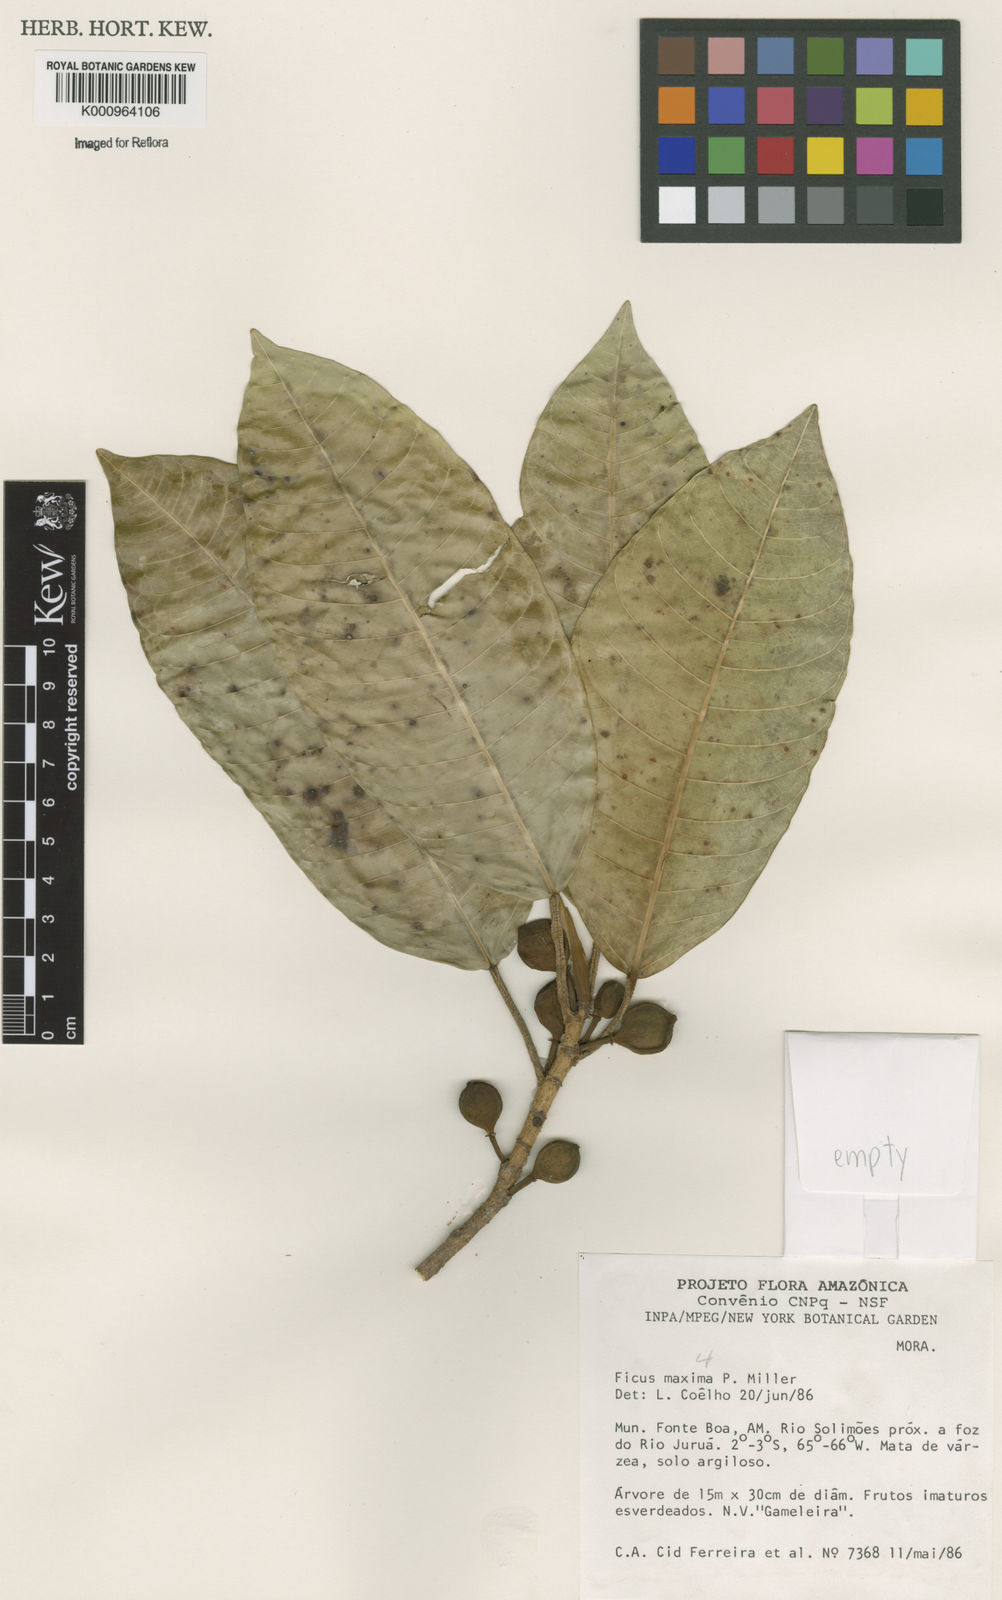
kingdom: Plantae
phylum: Tracheophyta
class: Magnoliopsida
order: Rosales
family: Moraceae
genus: Ficus
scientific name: Ficus maxima
